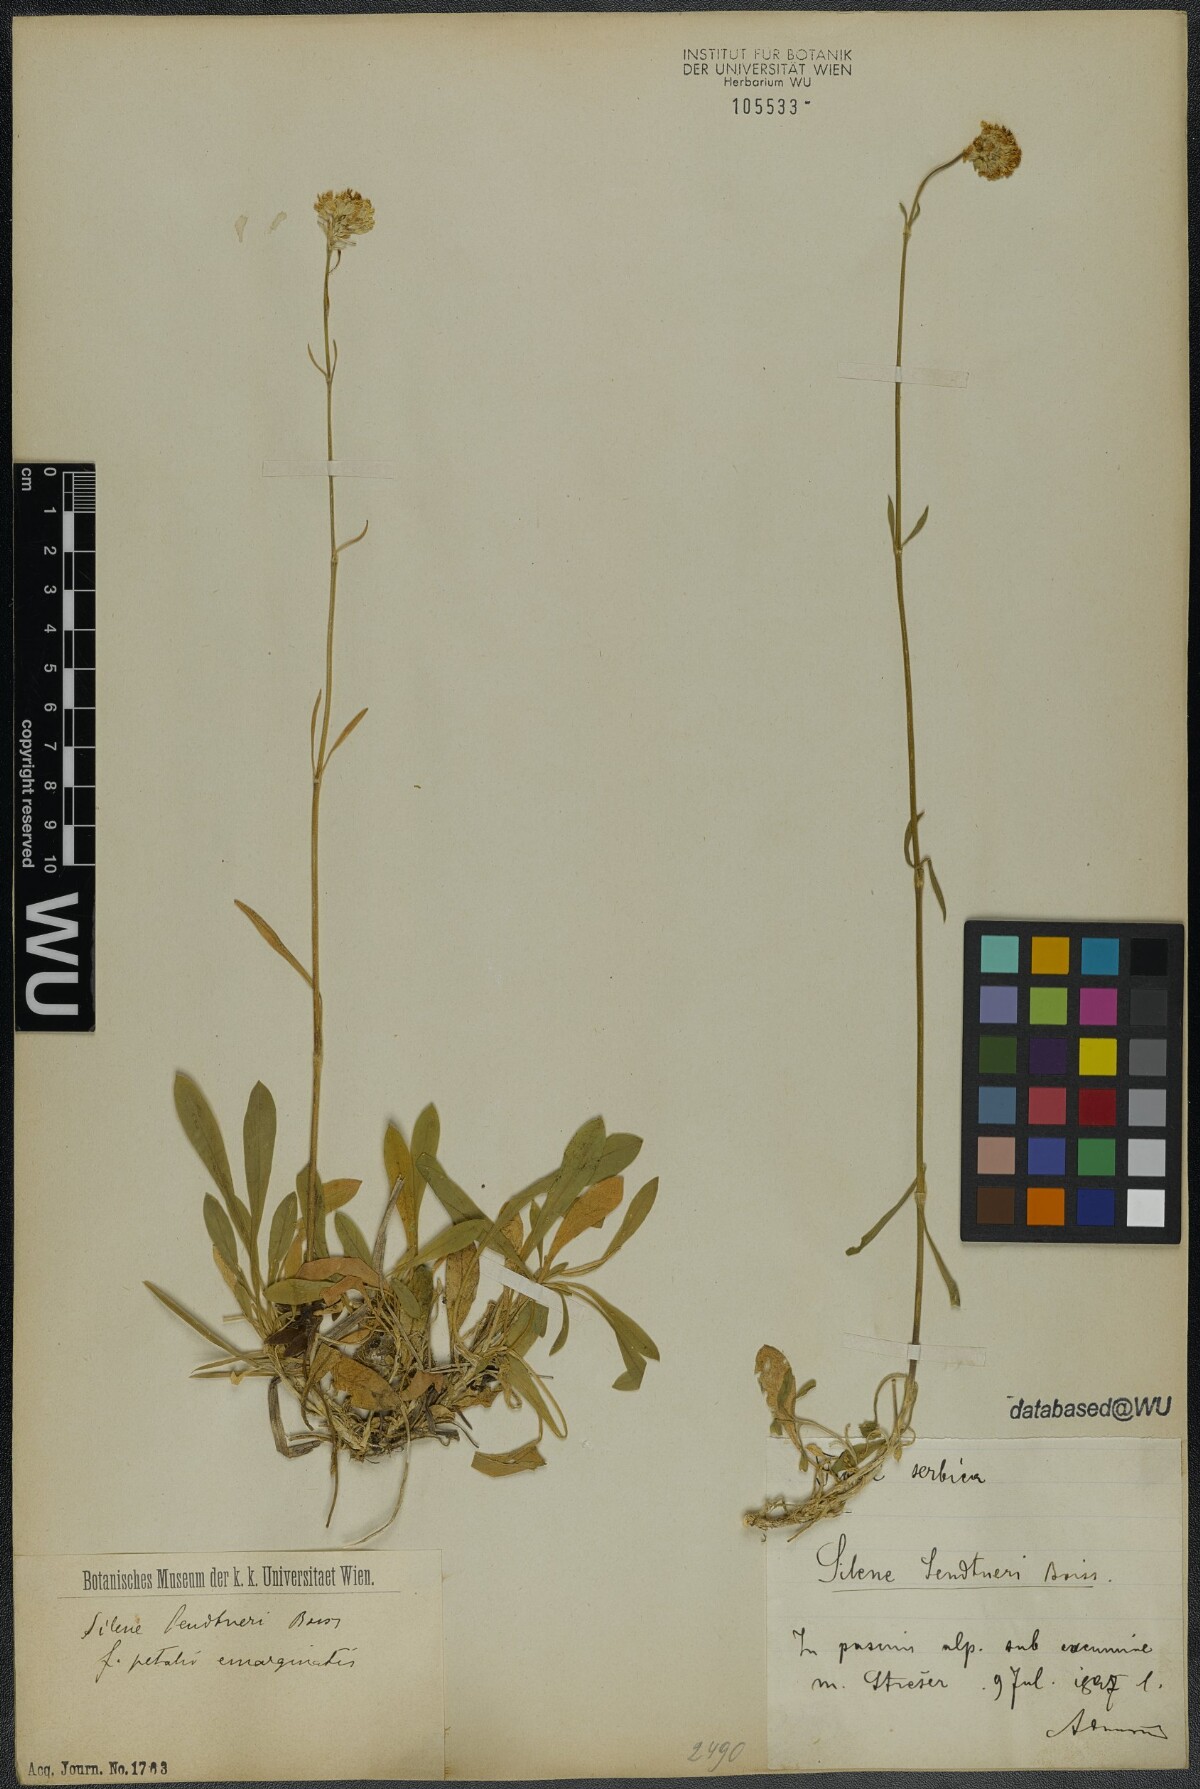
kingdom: Plantae
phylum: Tracheophyta
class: Magnoliopsida
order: Caryophyllales
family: Caryophyllaceae
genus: Silene
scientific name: Silene sendtneri
